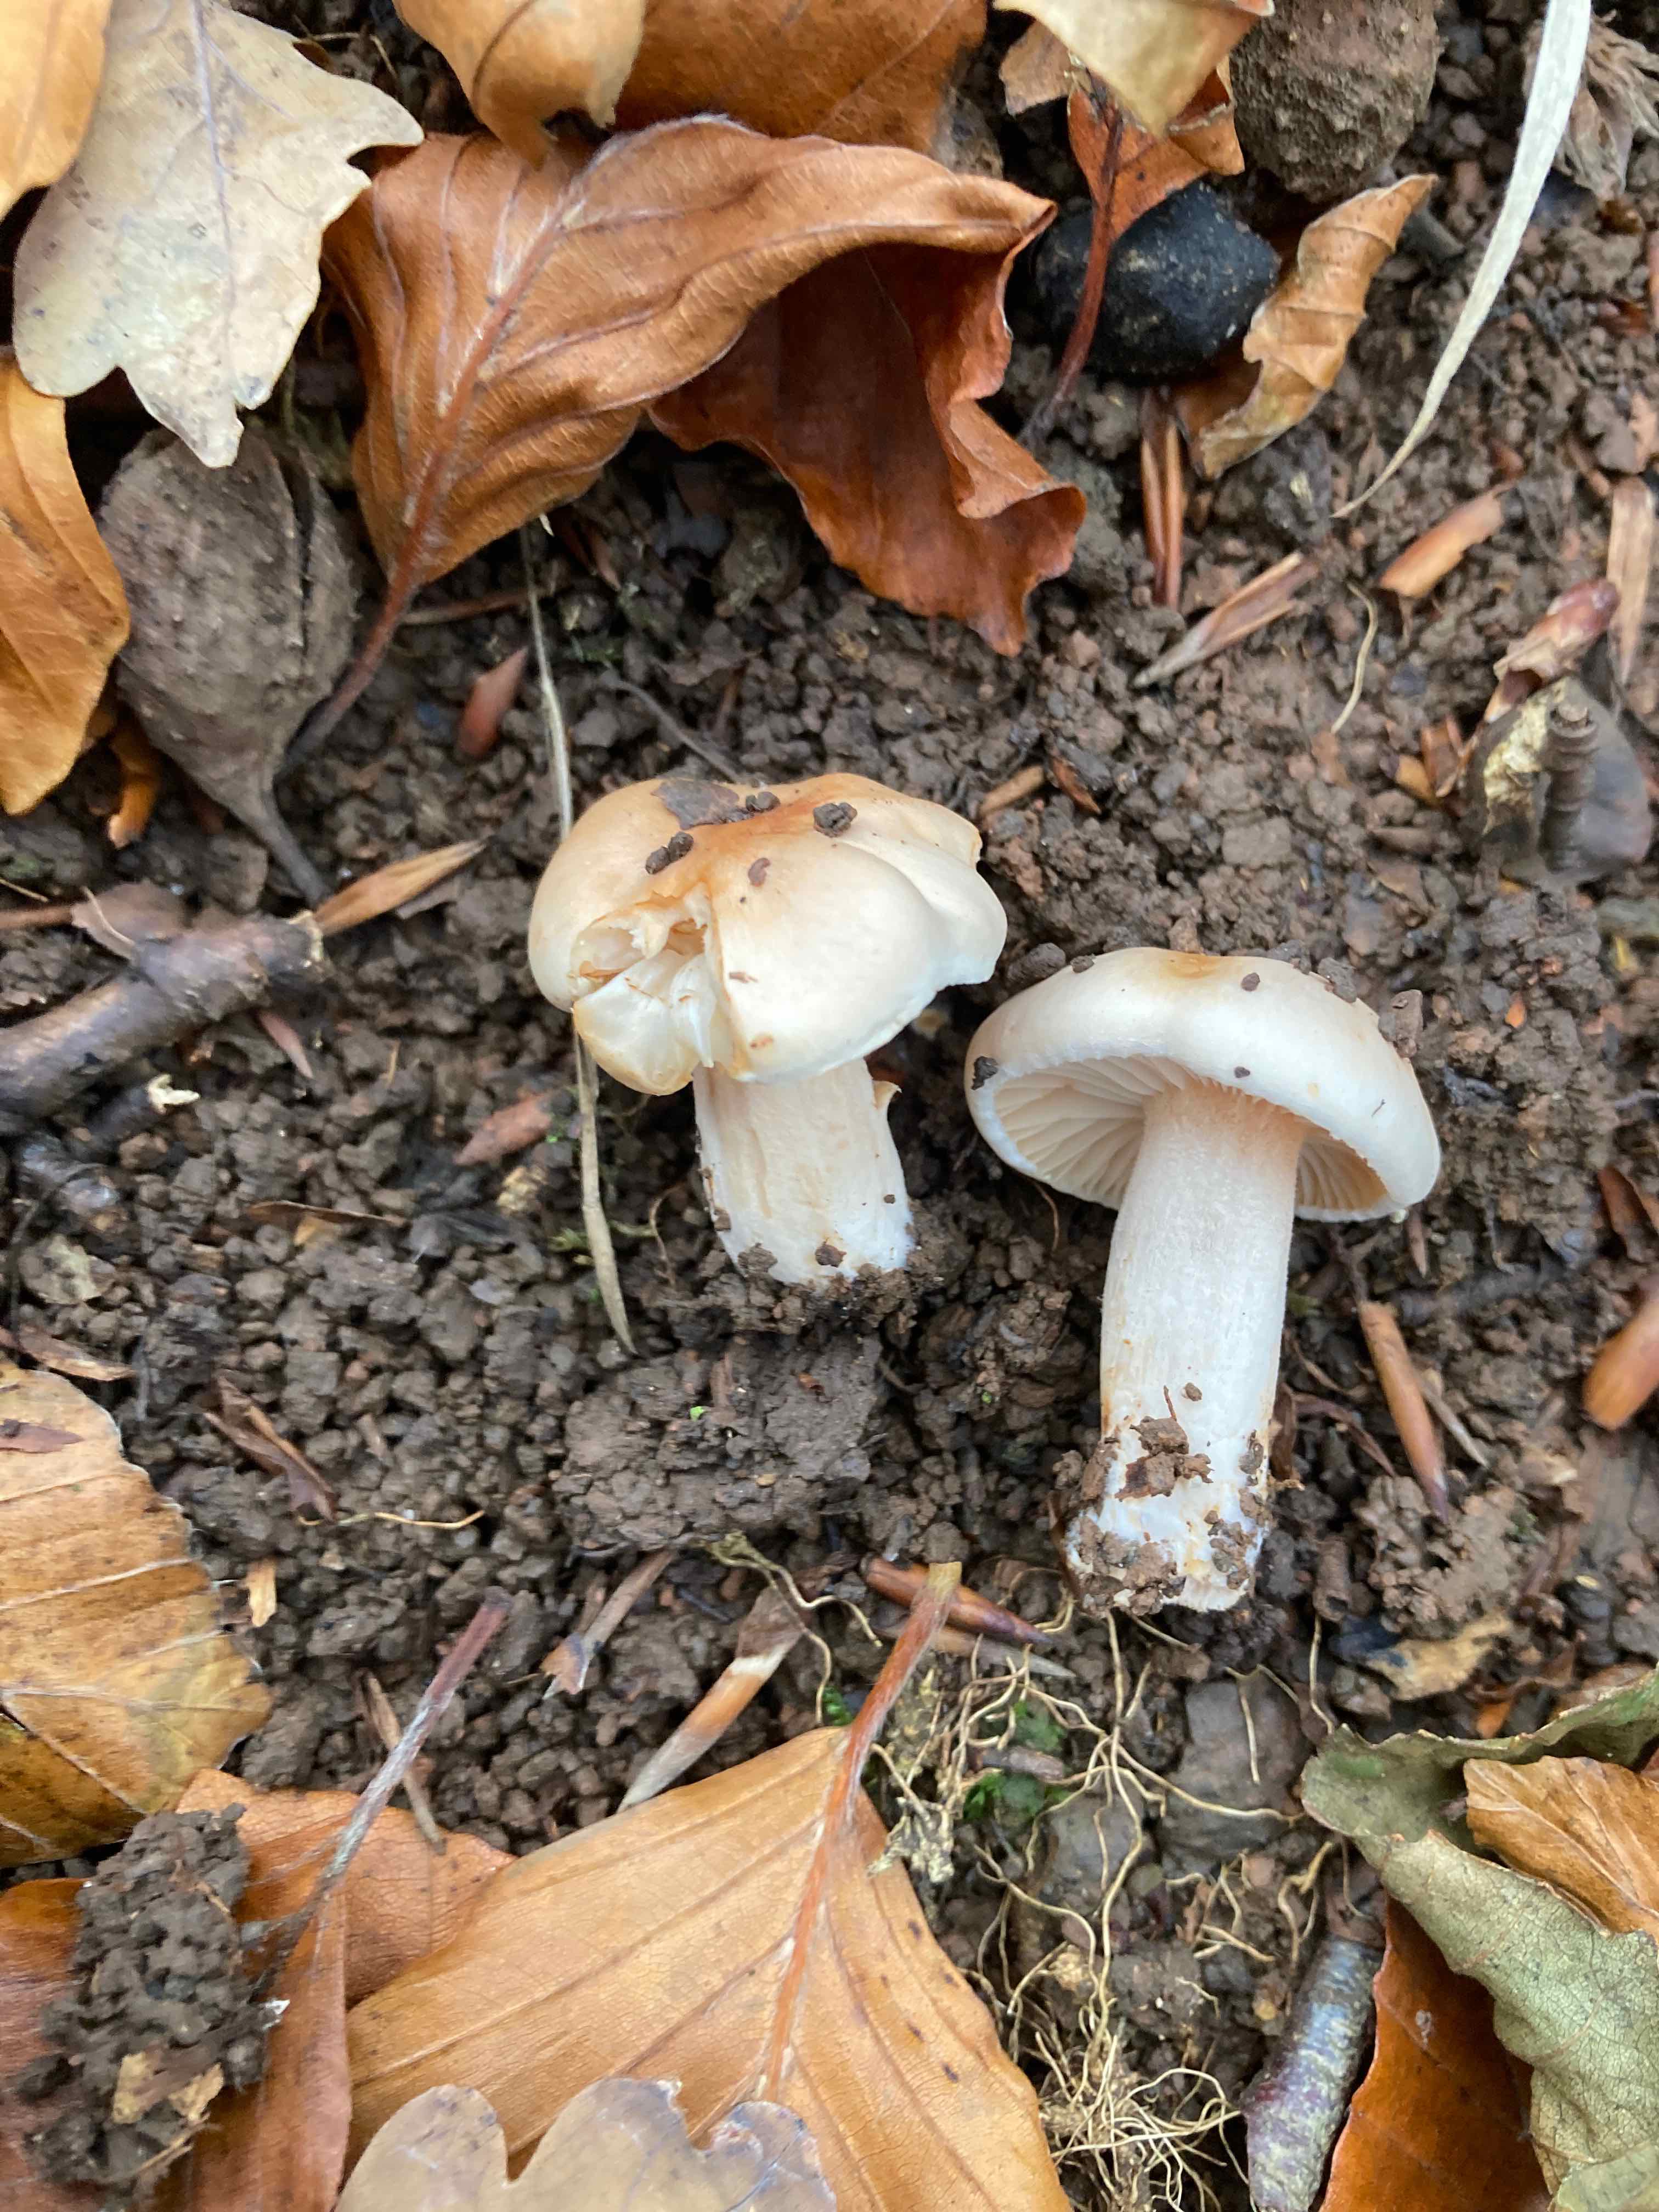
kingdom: Fungi
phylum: Basidiomycota
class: Agaricomycetes
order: Agaricales
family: Hygrophoraceae
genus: Hygrophorus
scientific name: Hygrophorus unicolor
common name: orangeøjet sneglehat
